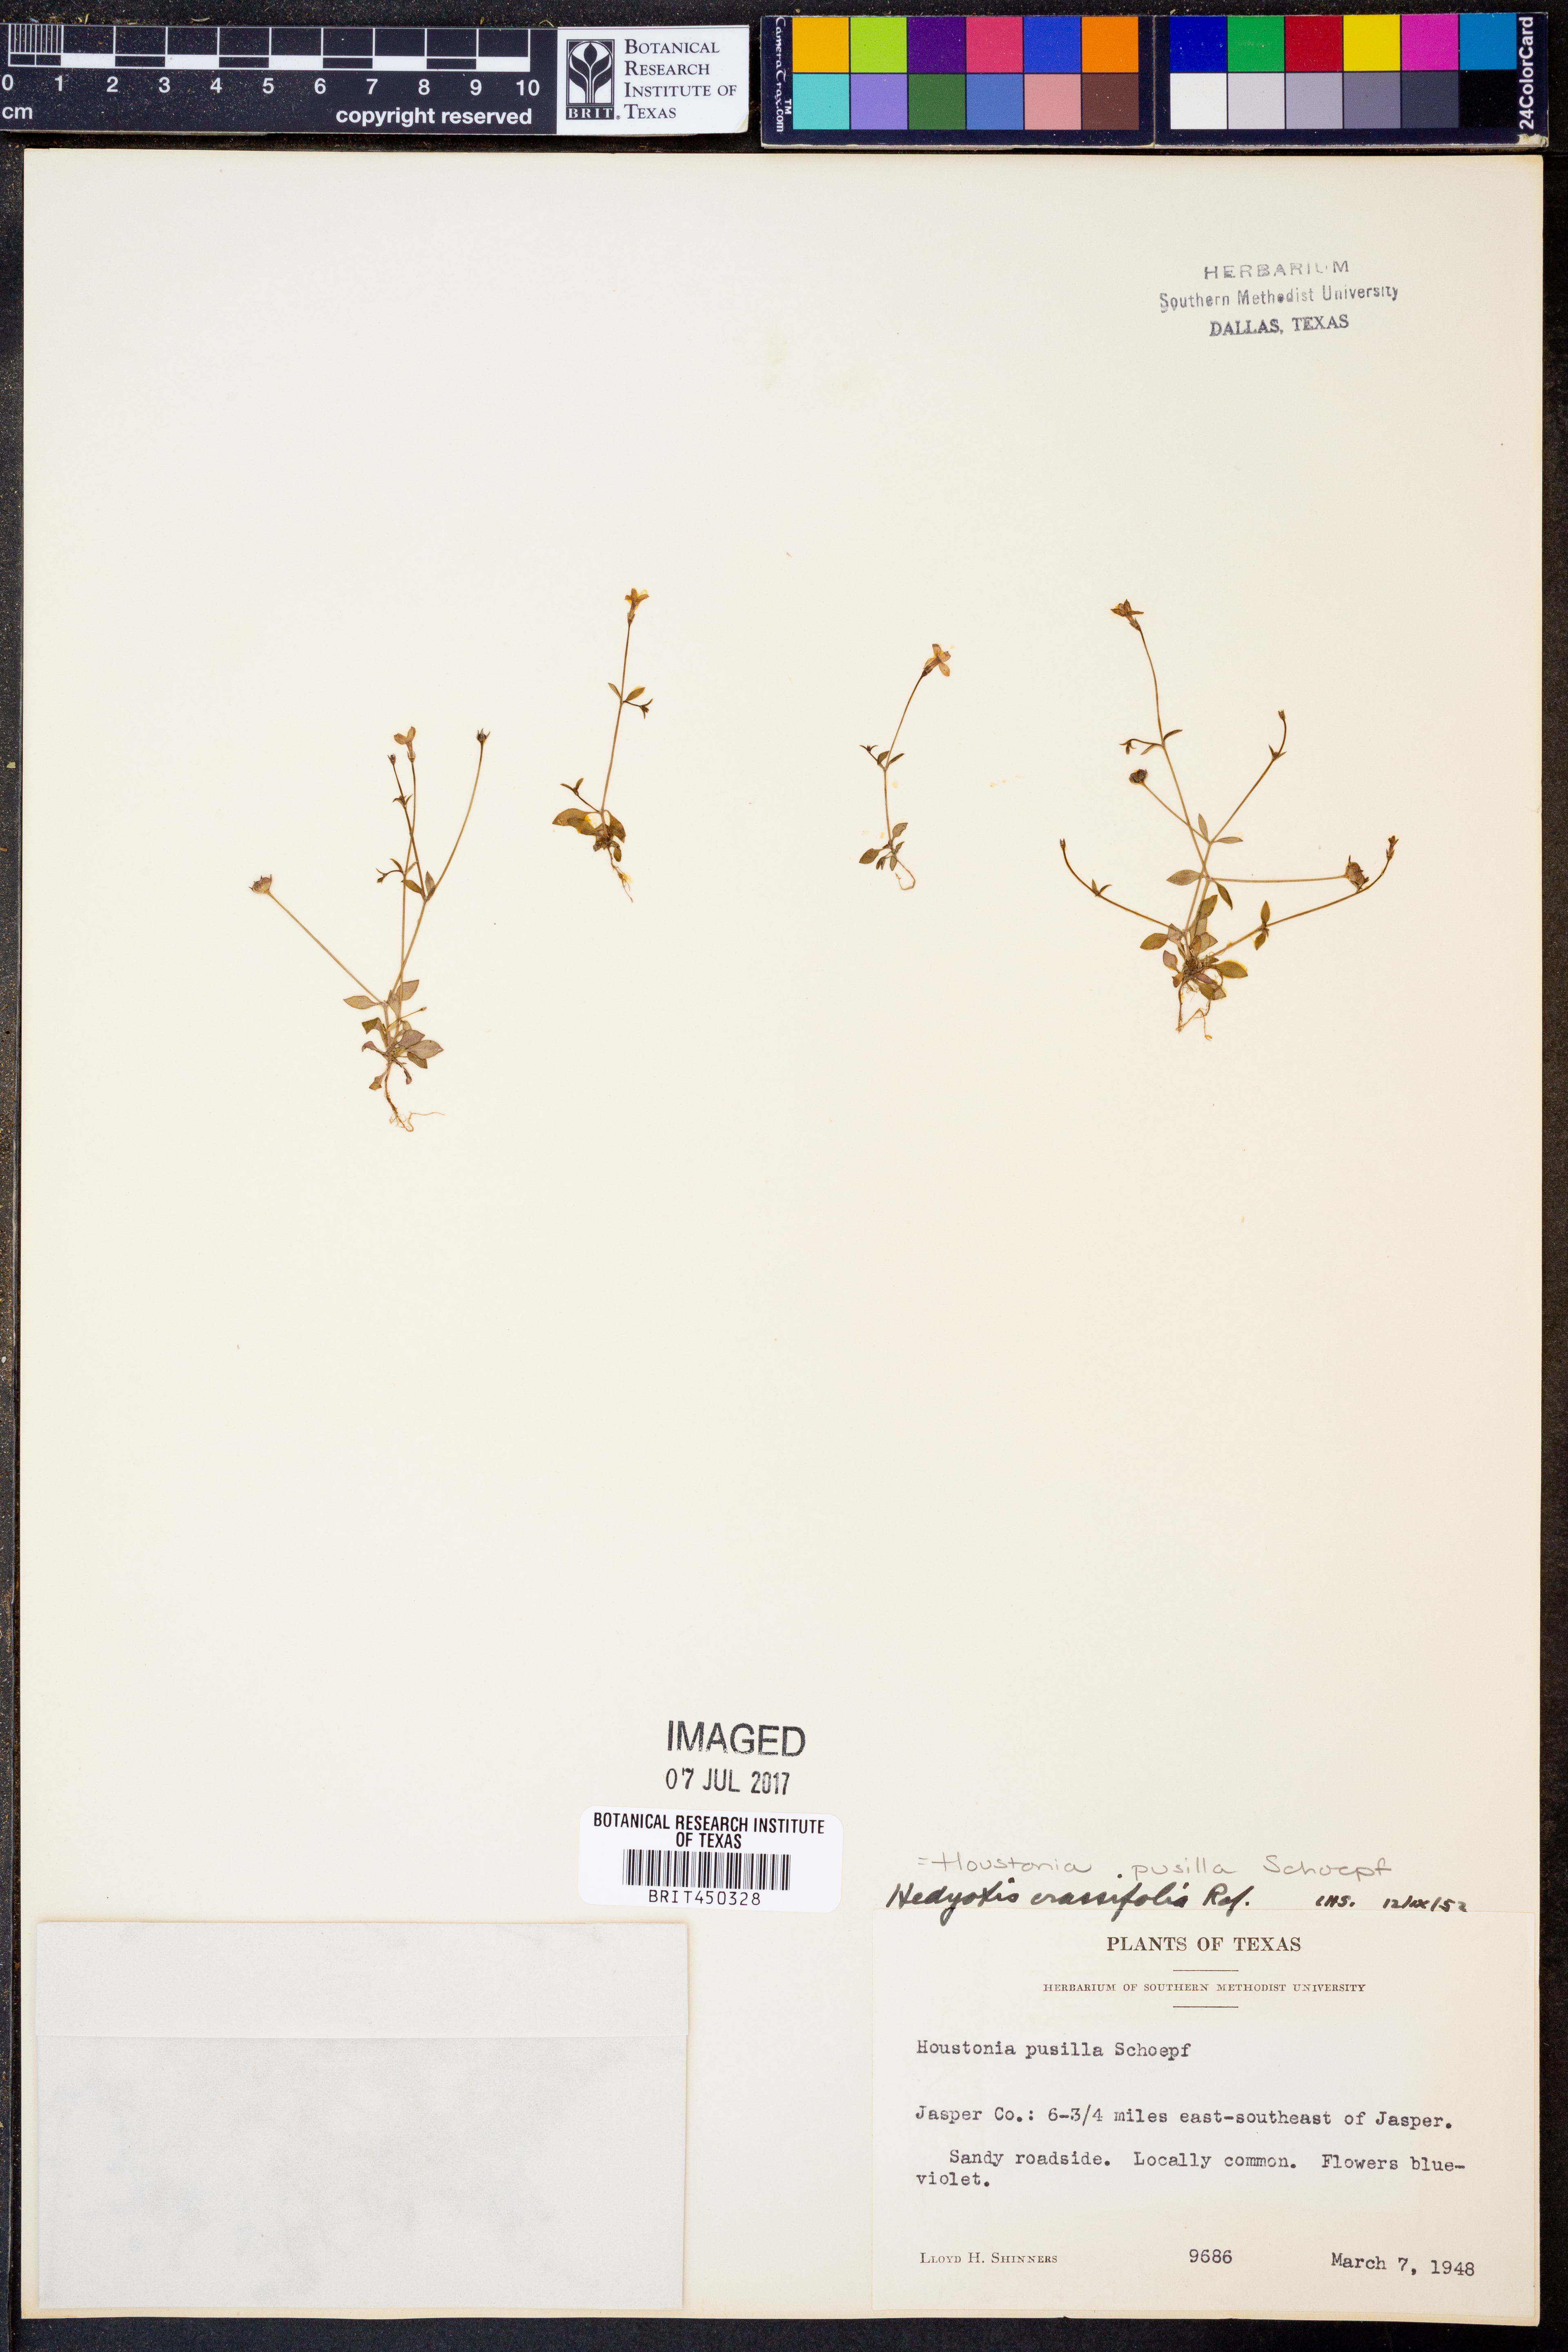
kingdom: Plantae
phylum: Tracheophyta
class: Magnoliopsida
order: Gentianales
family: Rubiaceae
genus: Houstonia
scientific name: Houstonia pusilla
